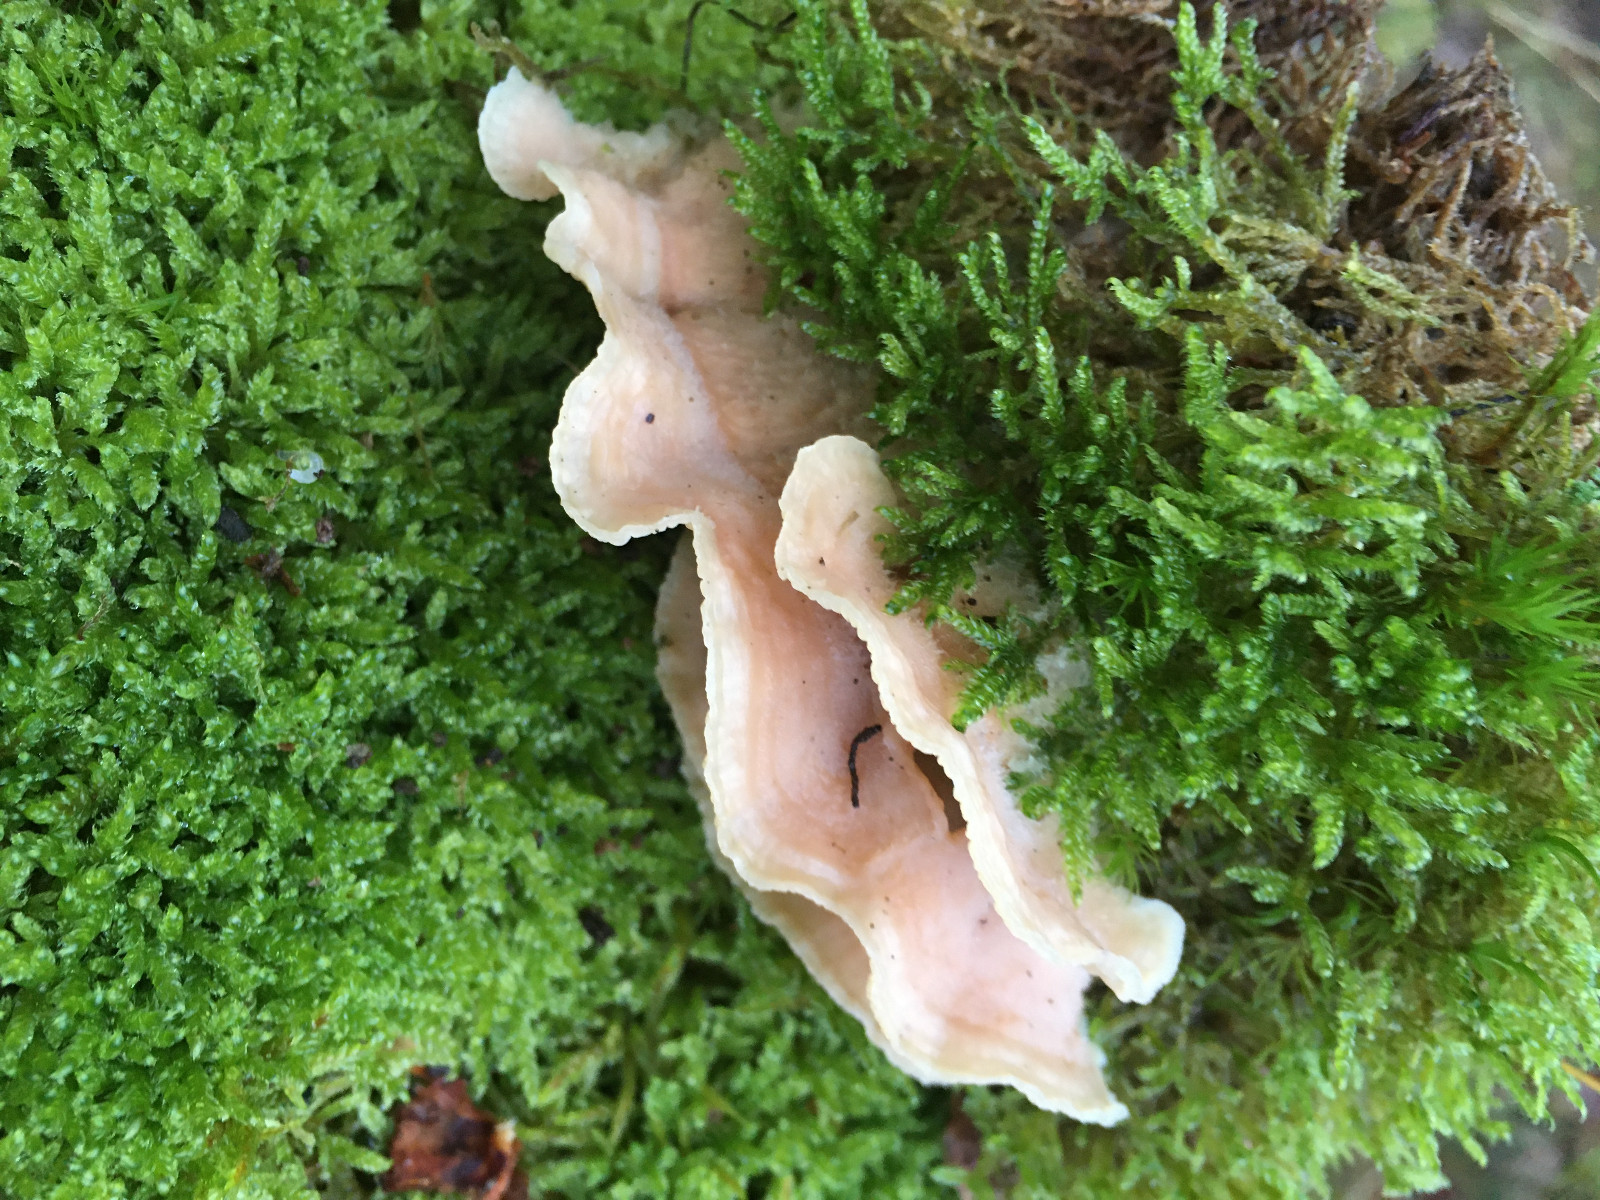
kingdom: Fungi
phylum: Basidiomycota
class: Agaricomycetes
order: Polyporales
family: Meruliaceae
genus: Phlebia
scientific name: Phlebia tremellosa
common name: bævrende åresvamp
